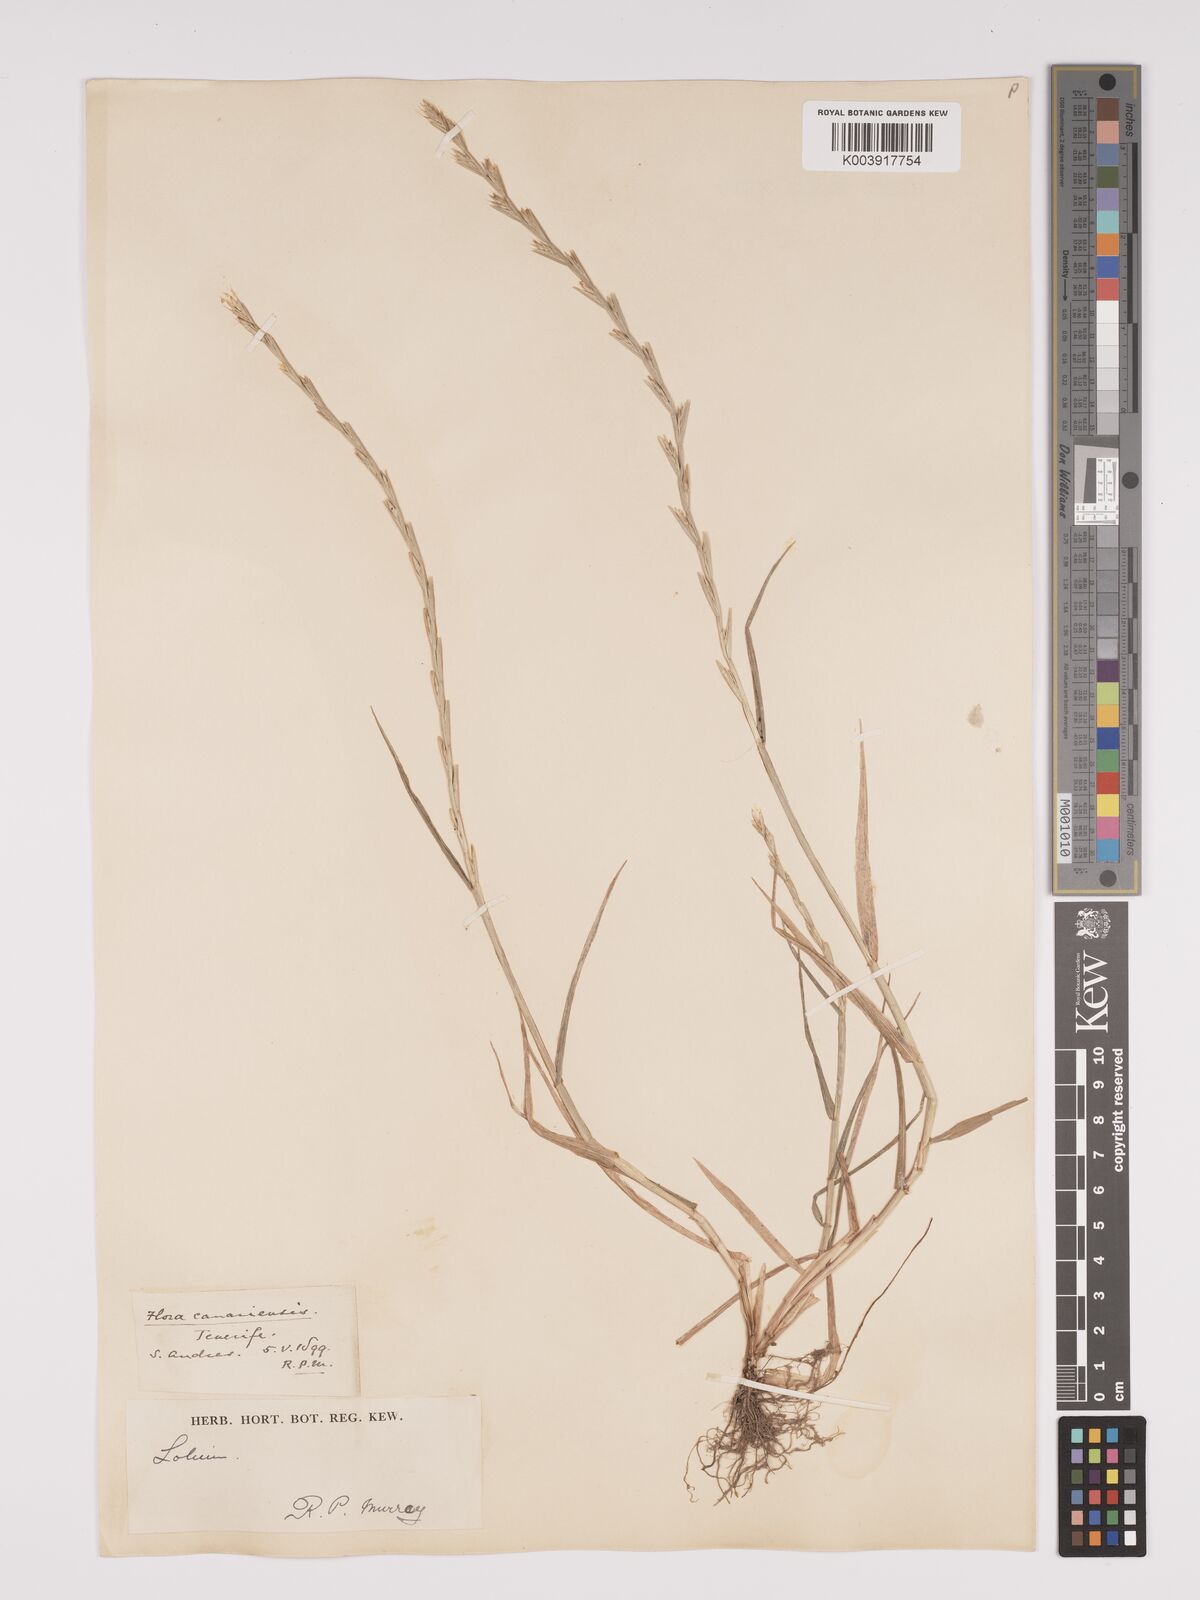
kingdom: Plantae
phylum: Tracheophyta
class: Liliopsida
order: Poales
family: Poaceae
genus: Lolium
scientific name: Lolium rigidum
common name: Wimmera ryegrass
